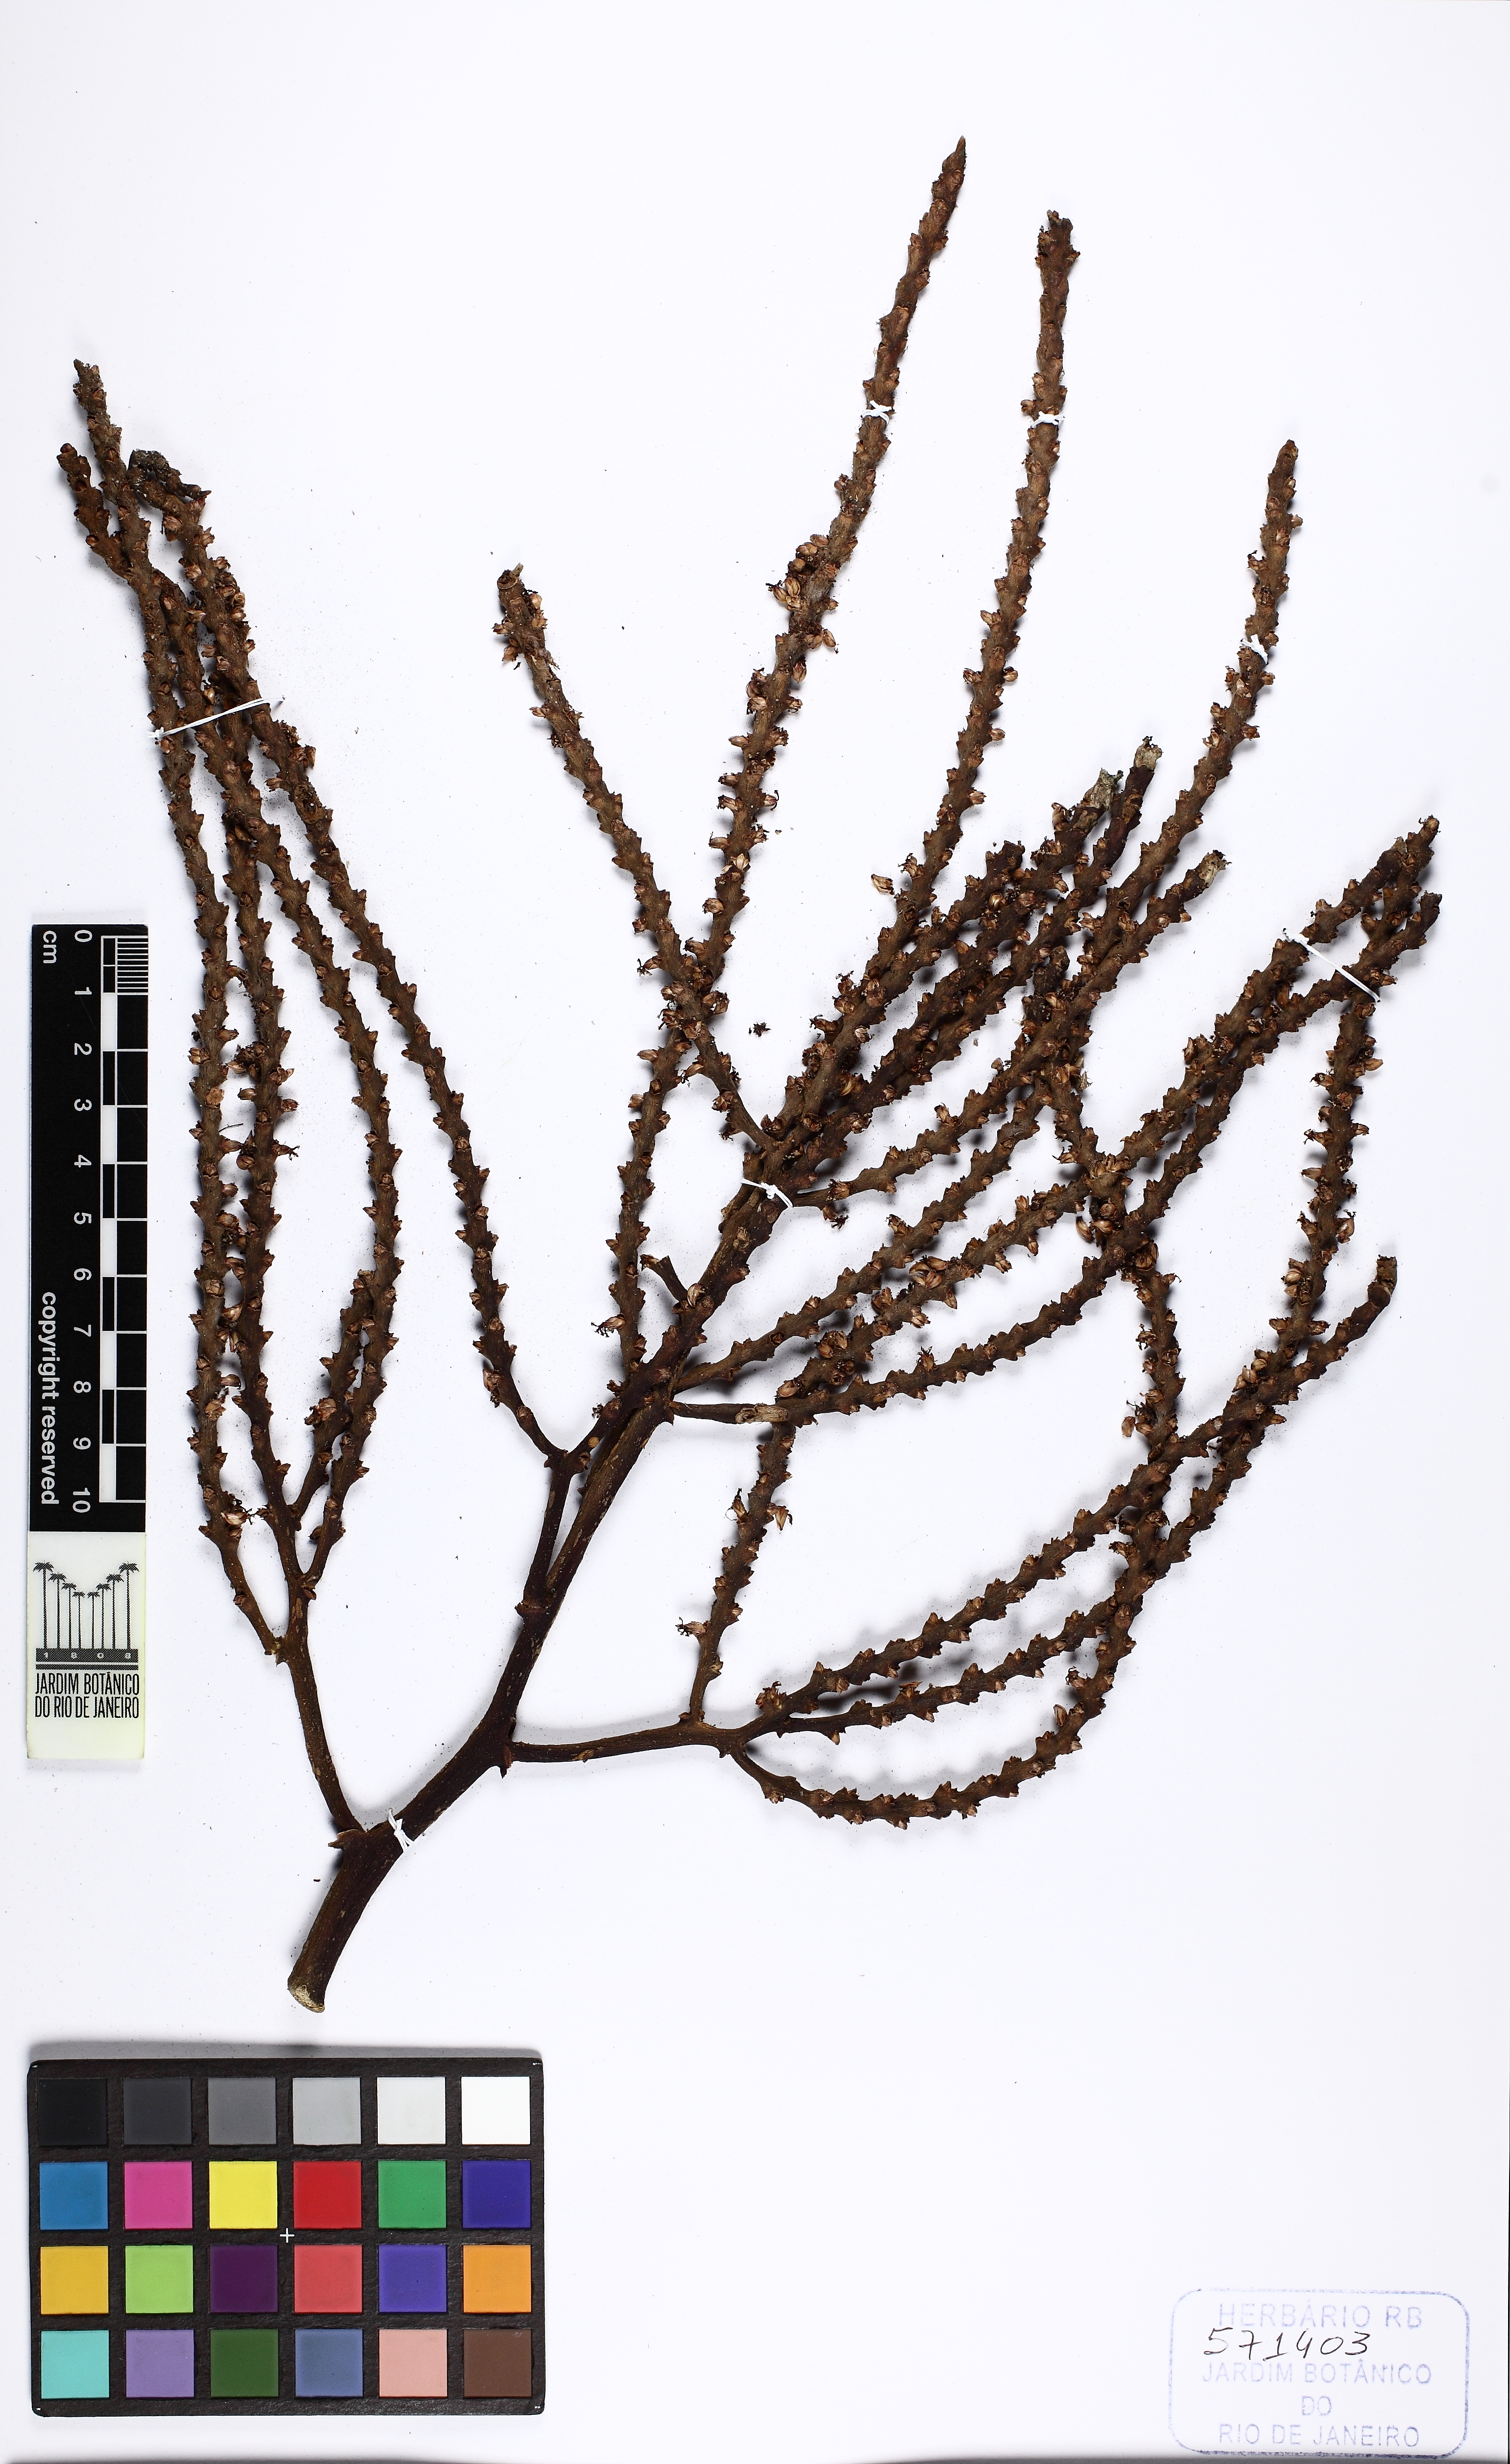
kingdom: Plantae
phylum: Tracheophyta
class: Liliopsida
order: Arecales
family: Arecaceae
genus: Geonoma
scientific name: Geonoma undata
